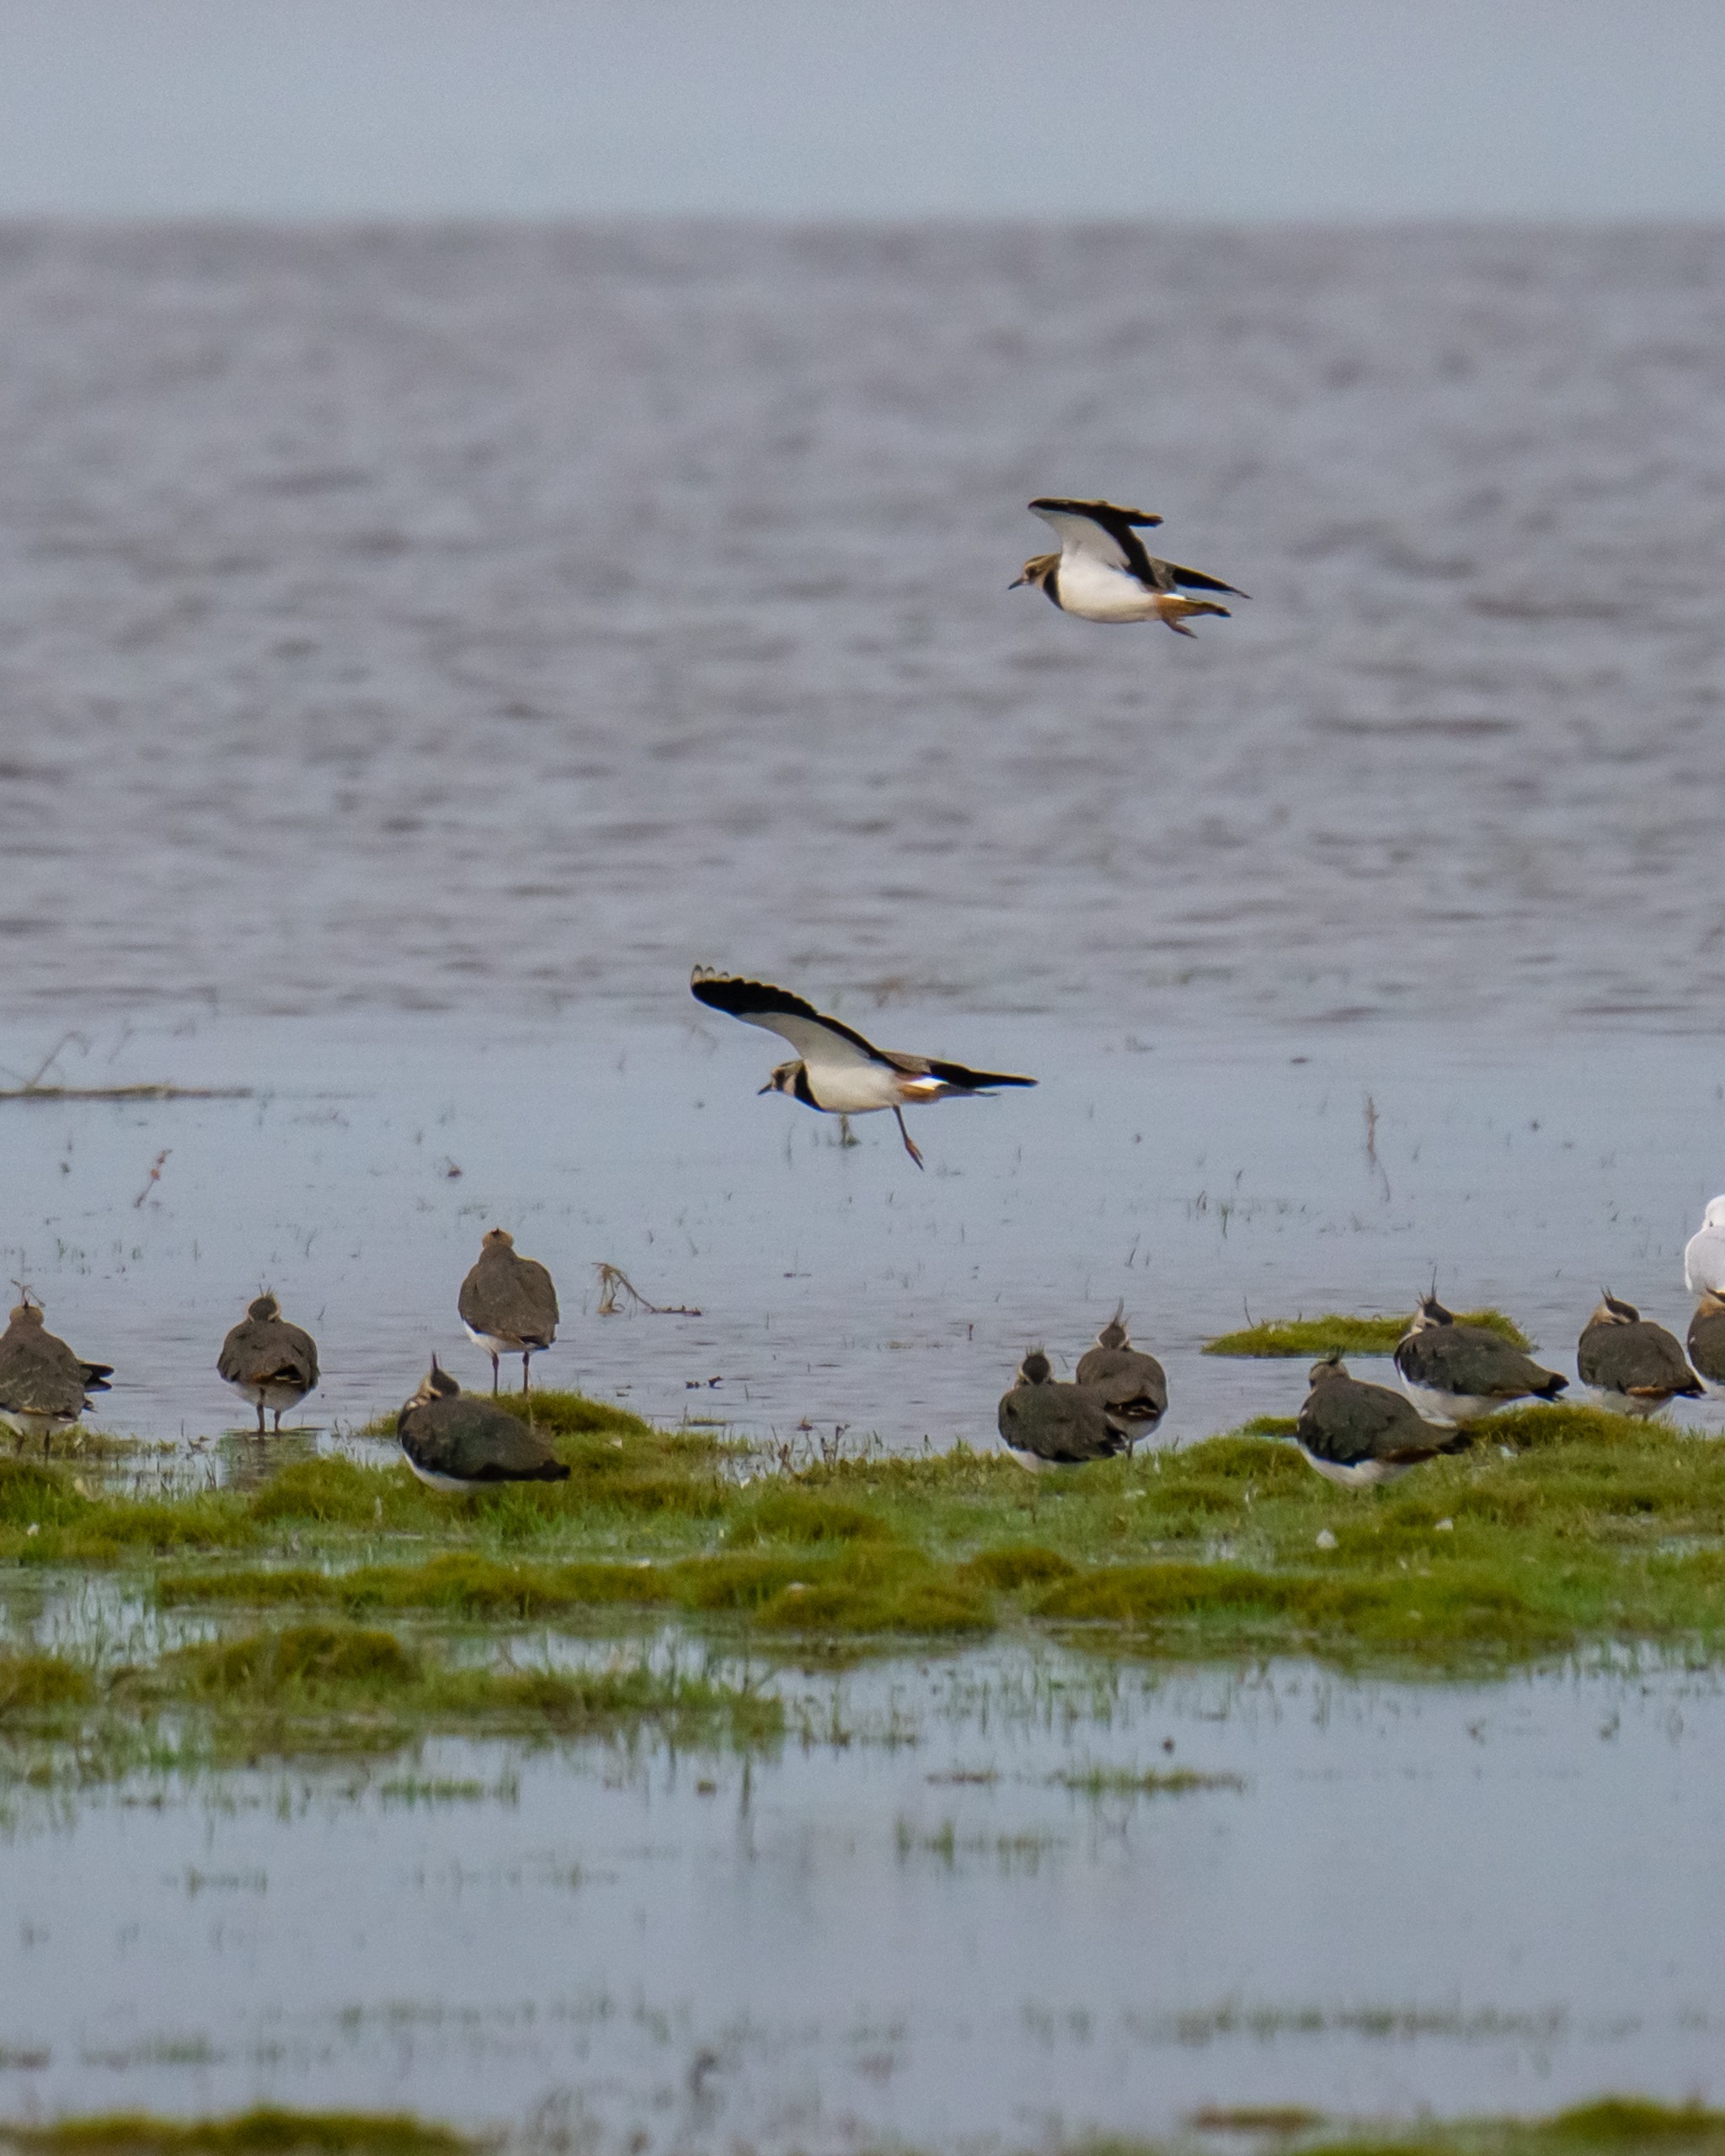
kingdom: Animalia
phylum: Chordata
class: Aves
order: Charadriiformes
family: Charadriidae
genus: Vanellus
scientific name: Vanellus vanellus
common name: Vibe
